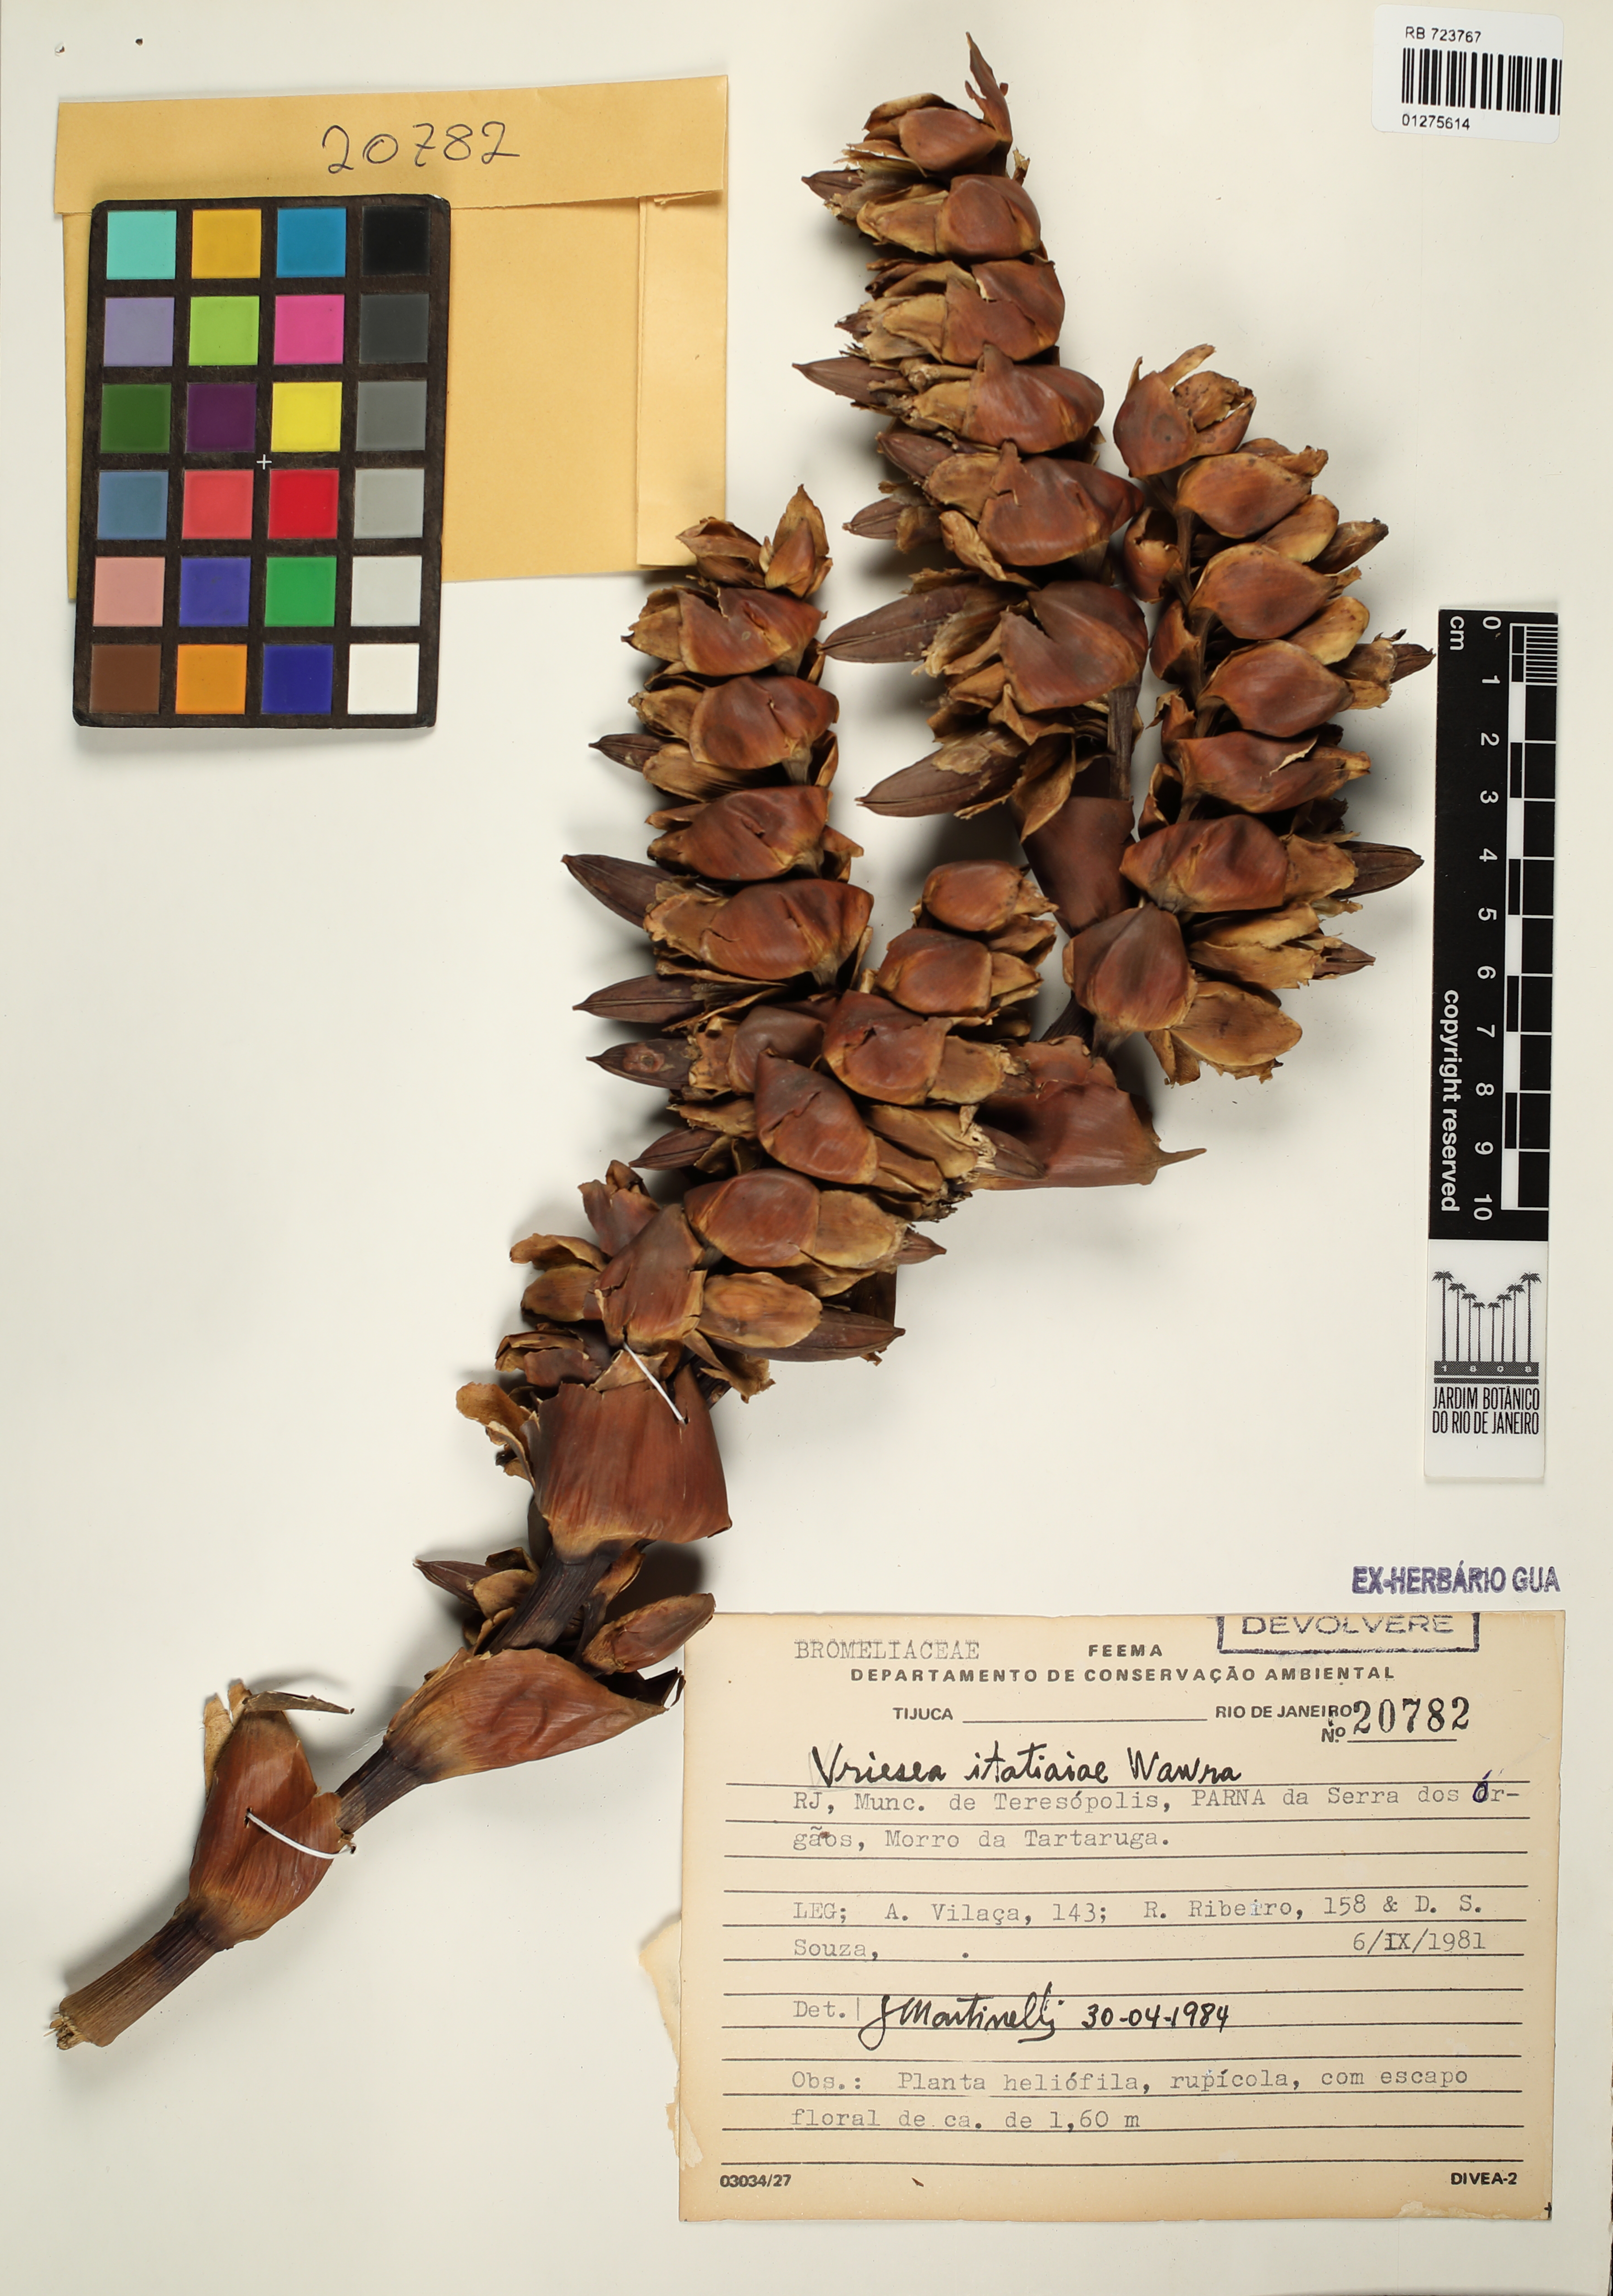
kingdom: Plantae
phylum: Tracheophyta
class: Liliopsida
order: Poales
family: Bromeliaceae
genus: Vriesea
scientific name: Vriesea itatiaiae
